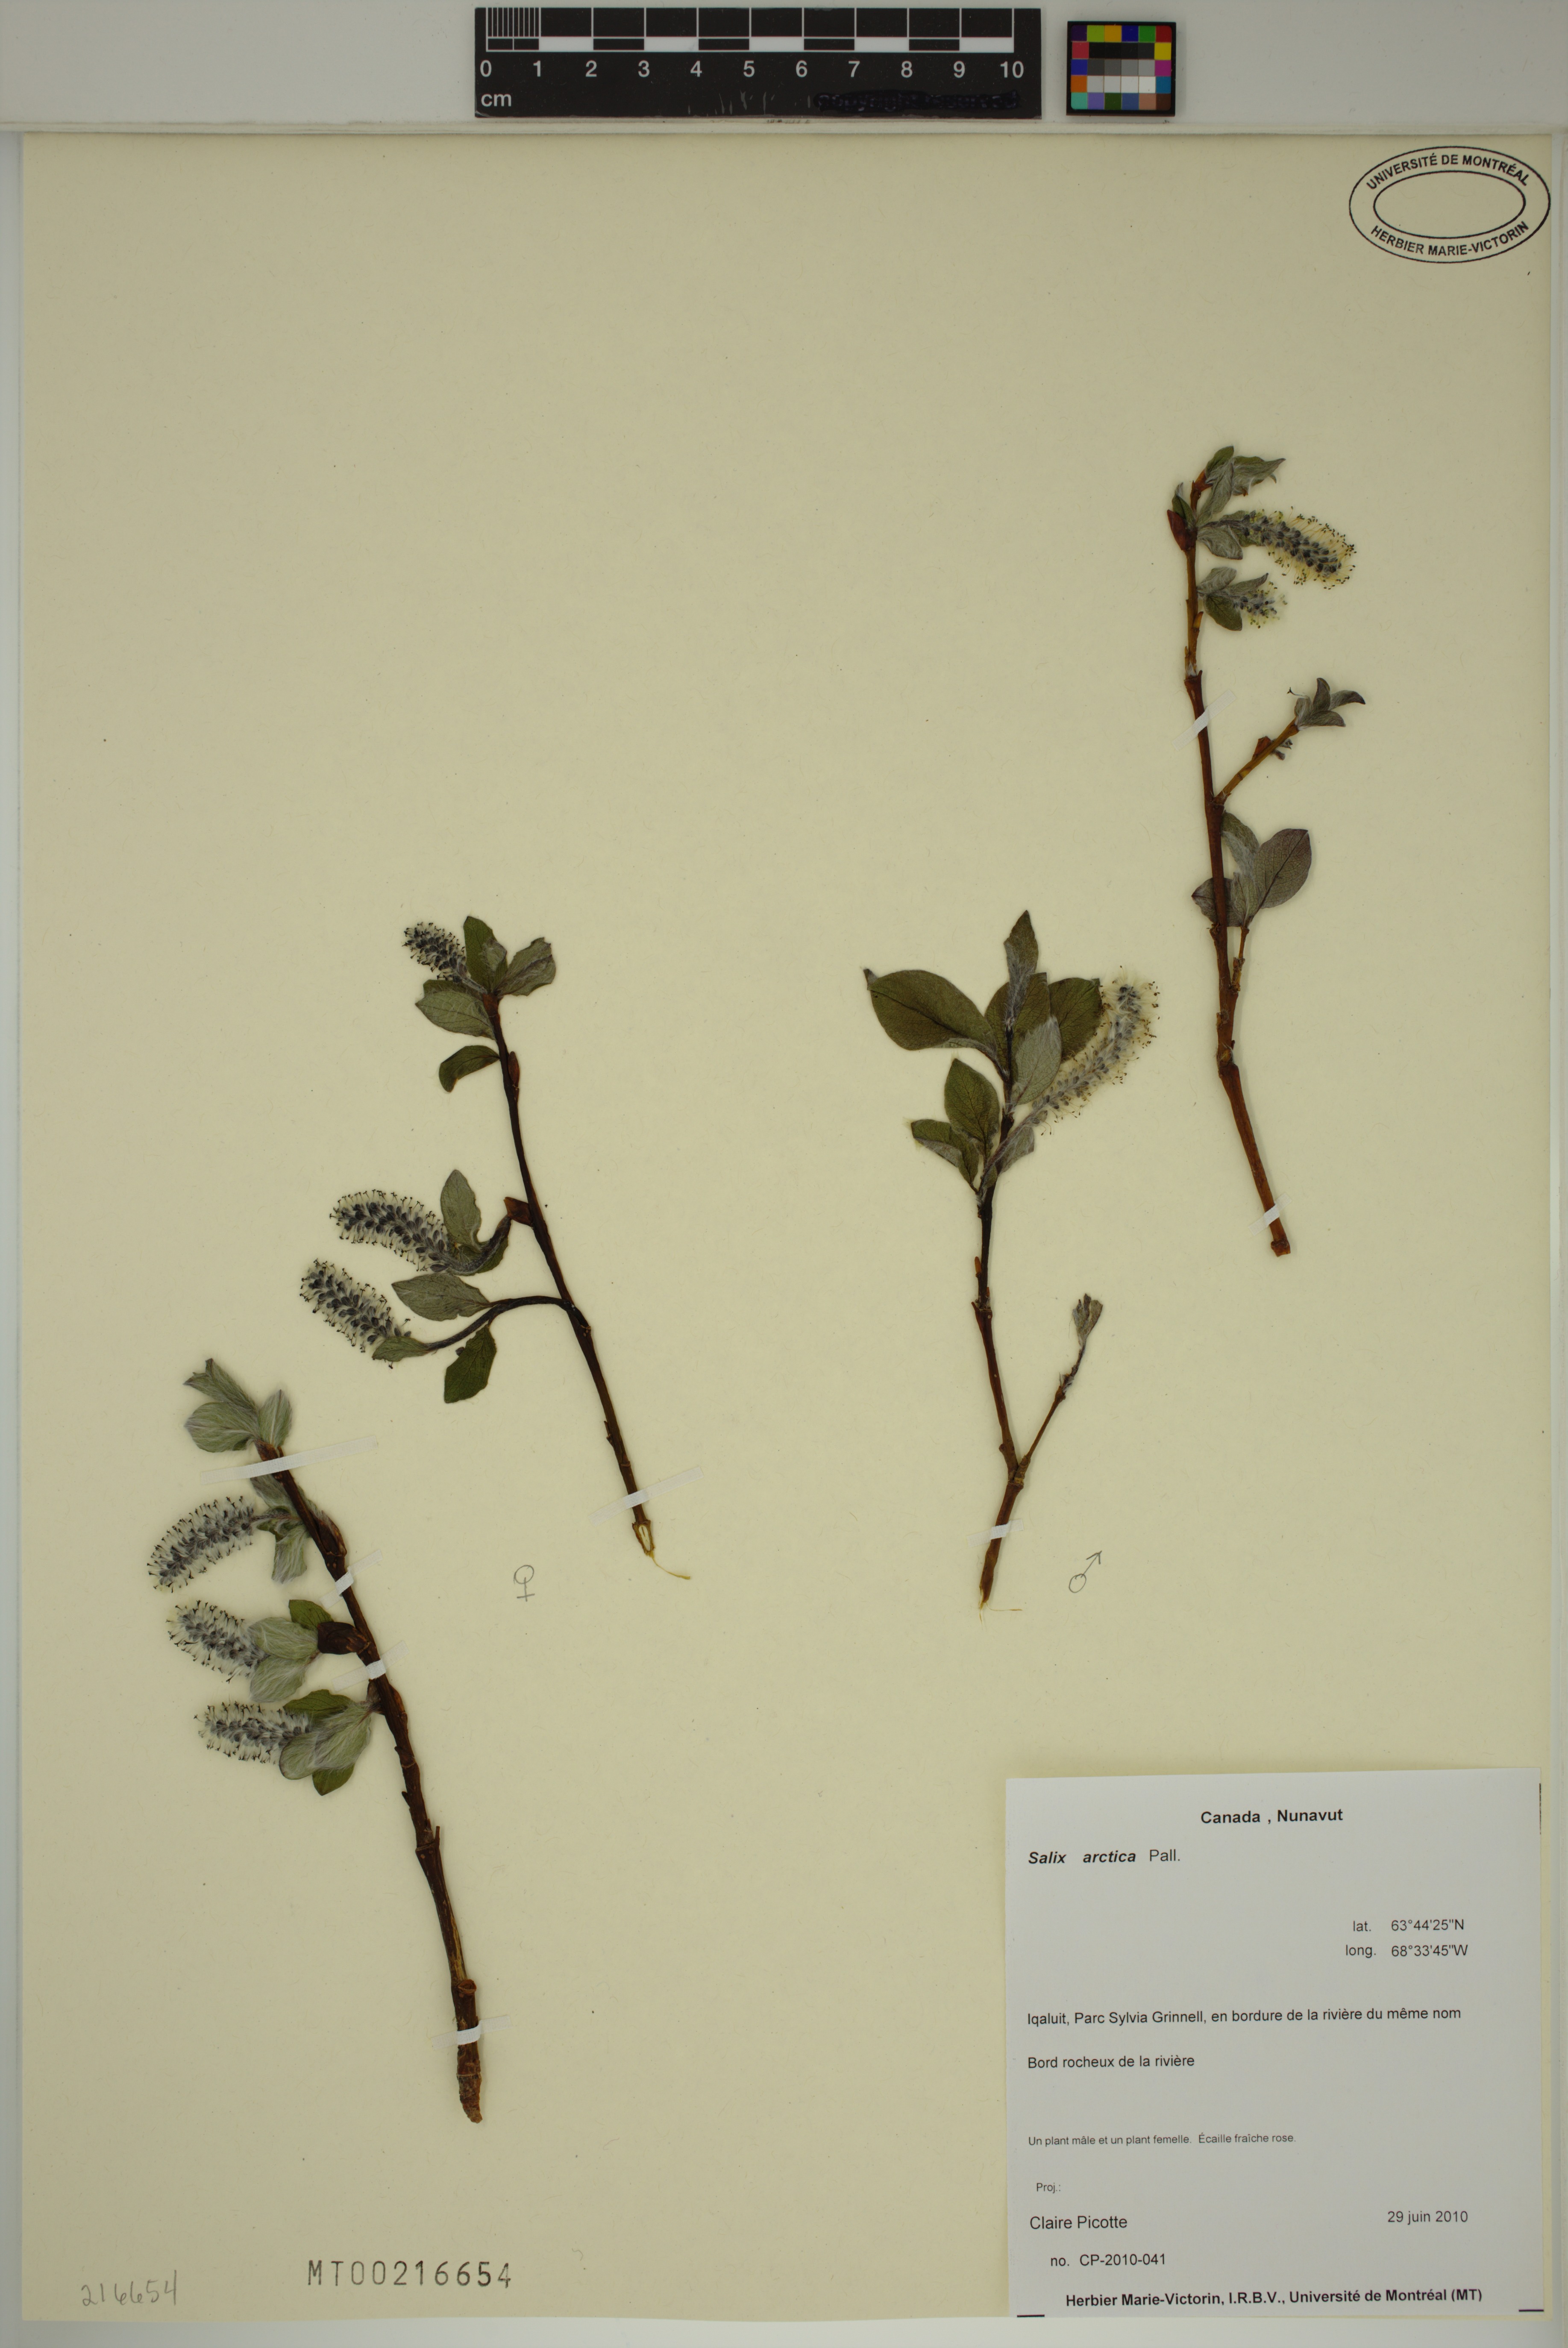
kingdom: Plantae
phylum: Tracheophyta
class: Magnoliopsida
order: Malpighiales
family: Salicaceae
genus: Salix
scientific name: Salix arctica
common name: Arctic willow
